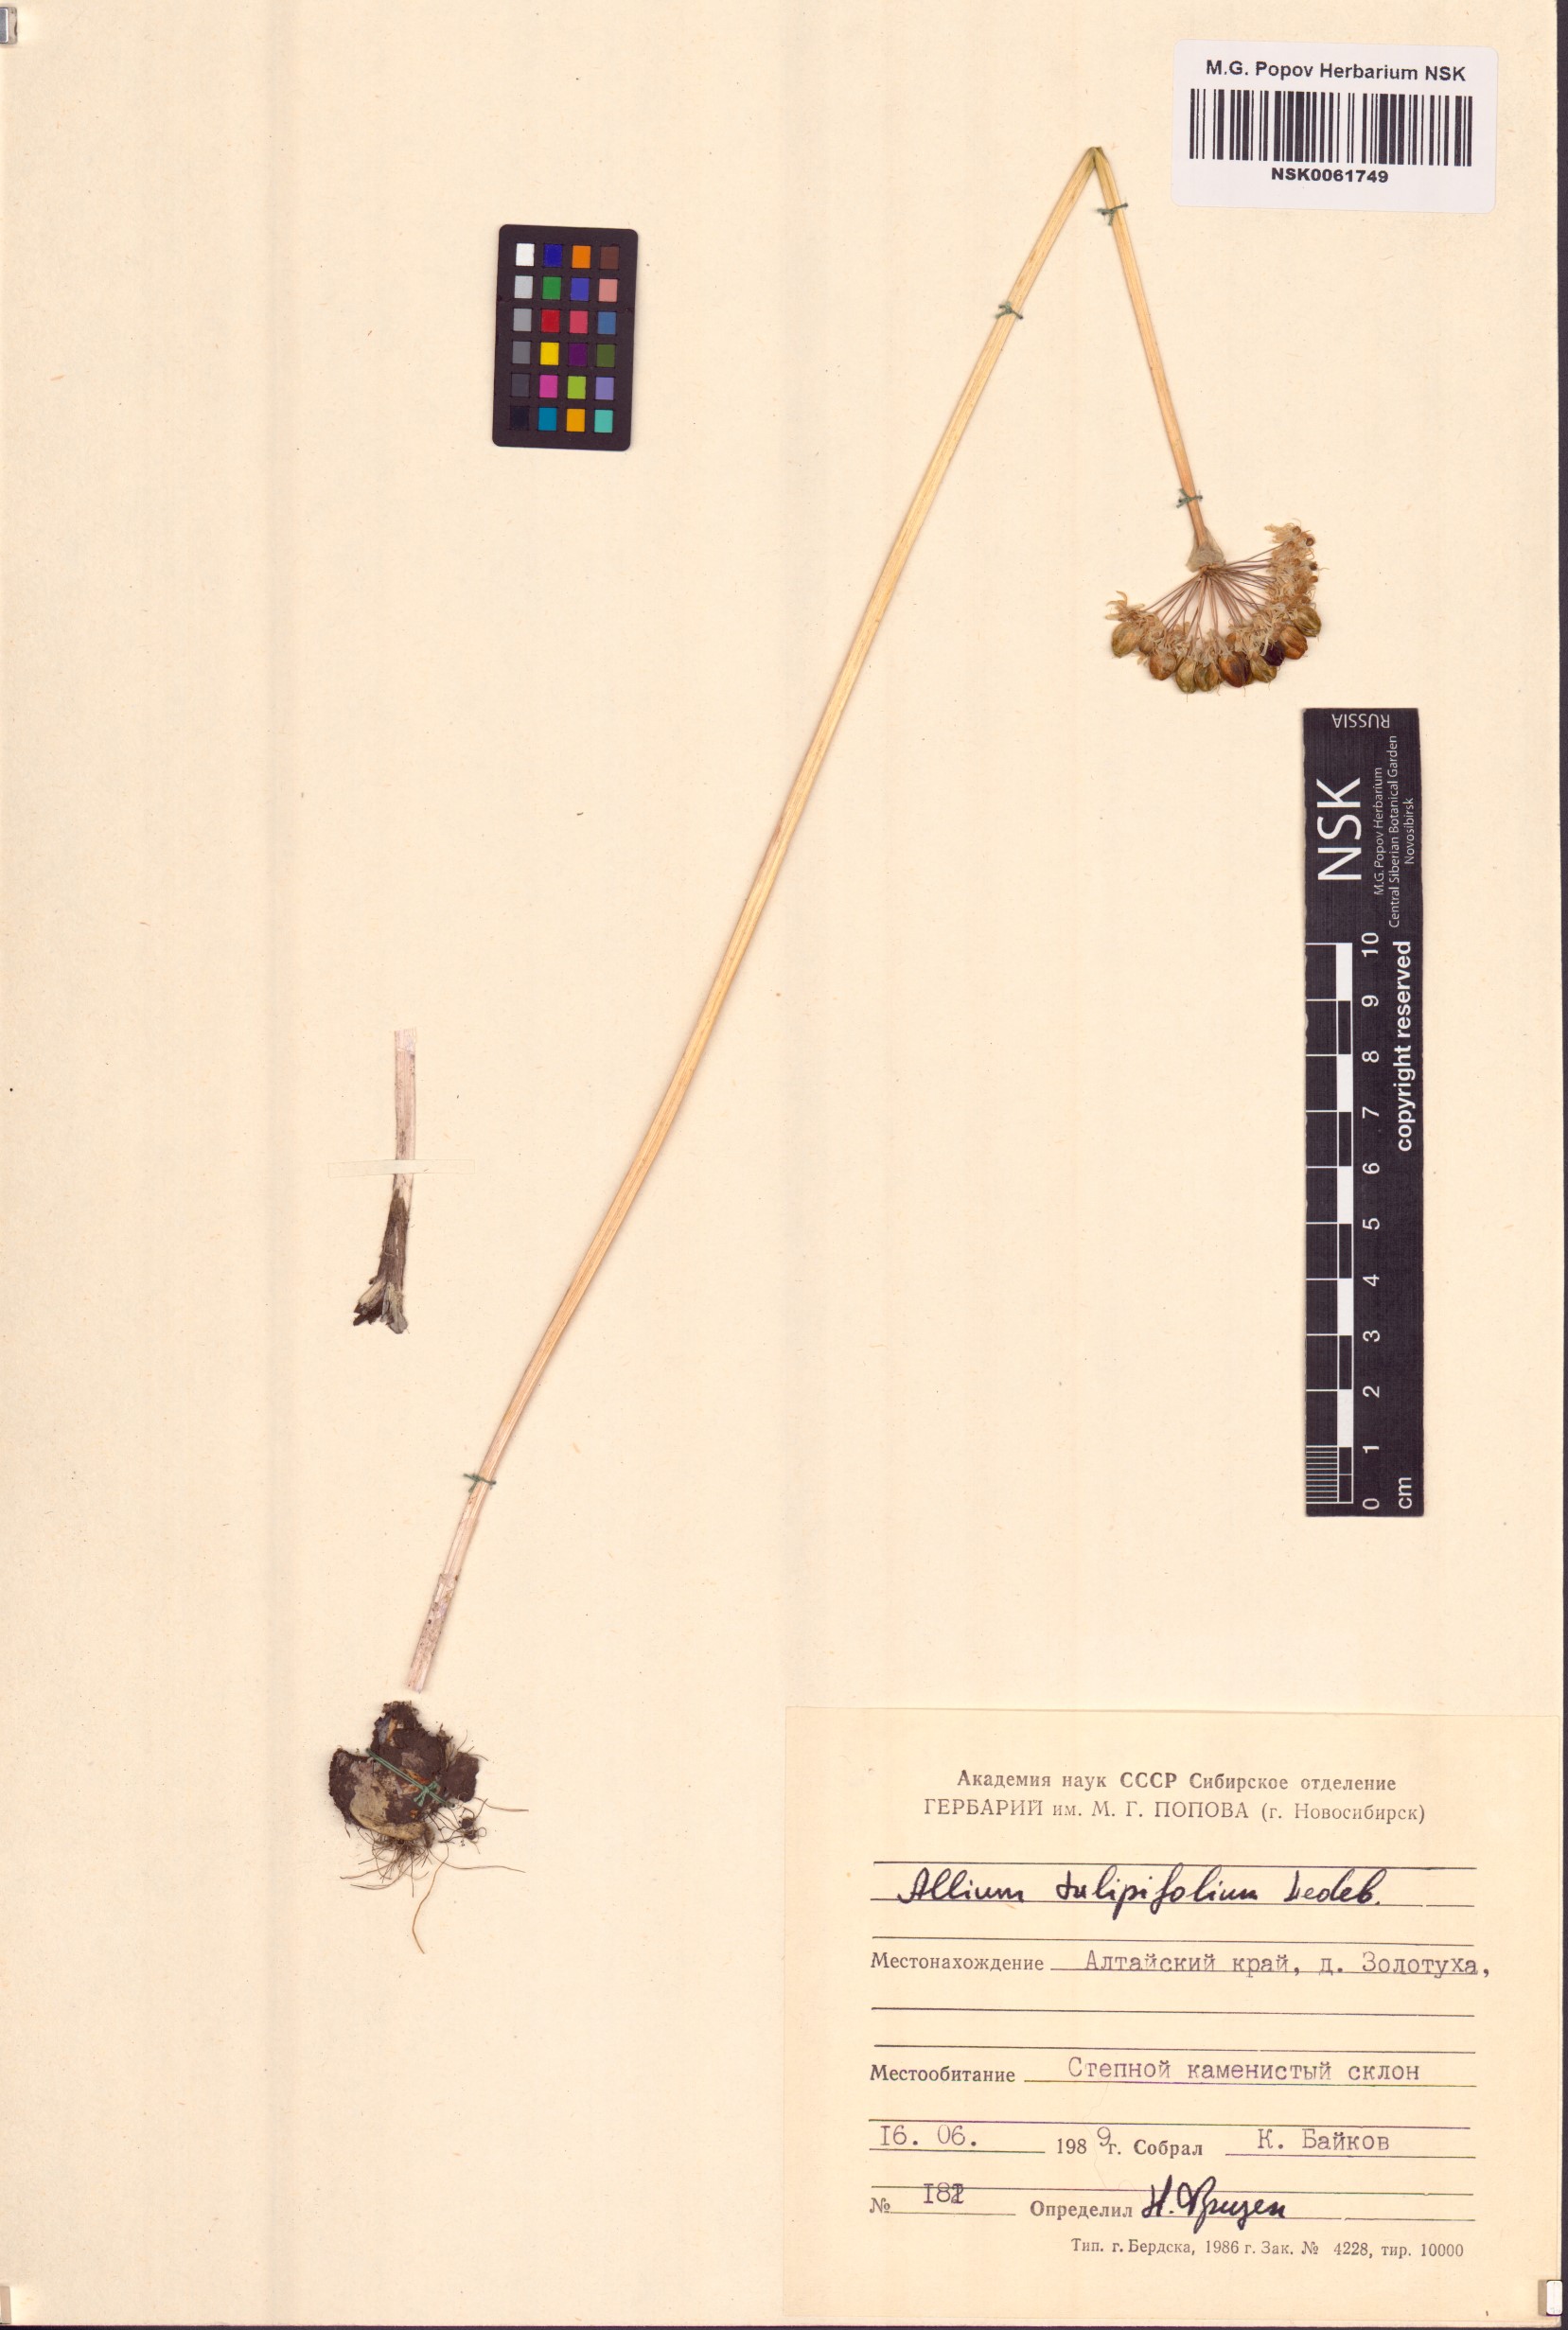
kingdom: Plantae
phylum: Tracheophyta
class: Liliopsida
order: Asparagales
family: Amaryllidaceae
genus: Allium
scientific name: Allium tulipifolium
